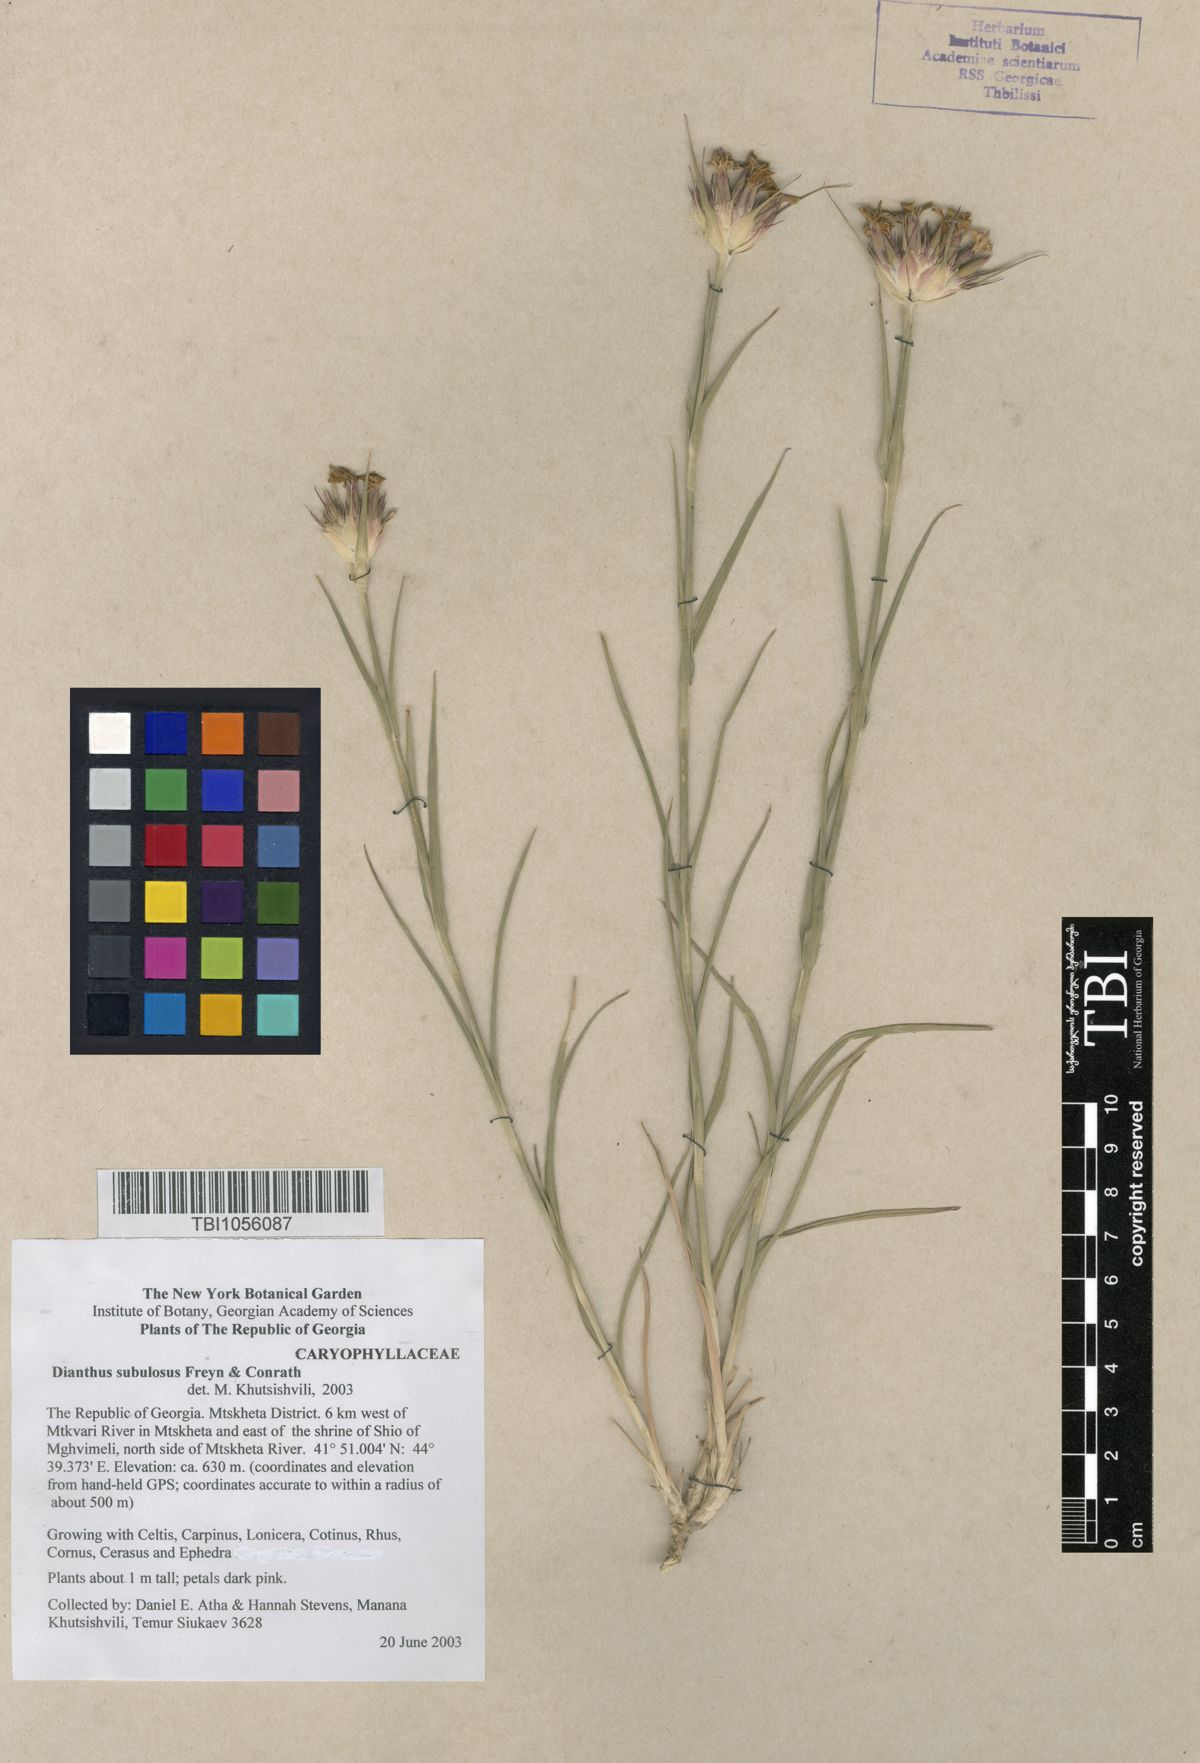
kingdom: Plantae
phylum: Tracheophyta
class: Magnoliopsida
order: Caryophyllales
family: Caryophyllaceae
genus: Dianthus
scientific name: Dianthus subulosus
